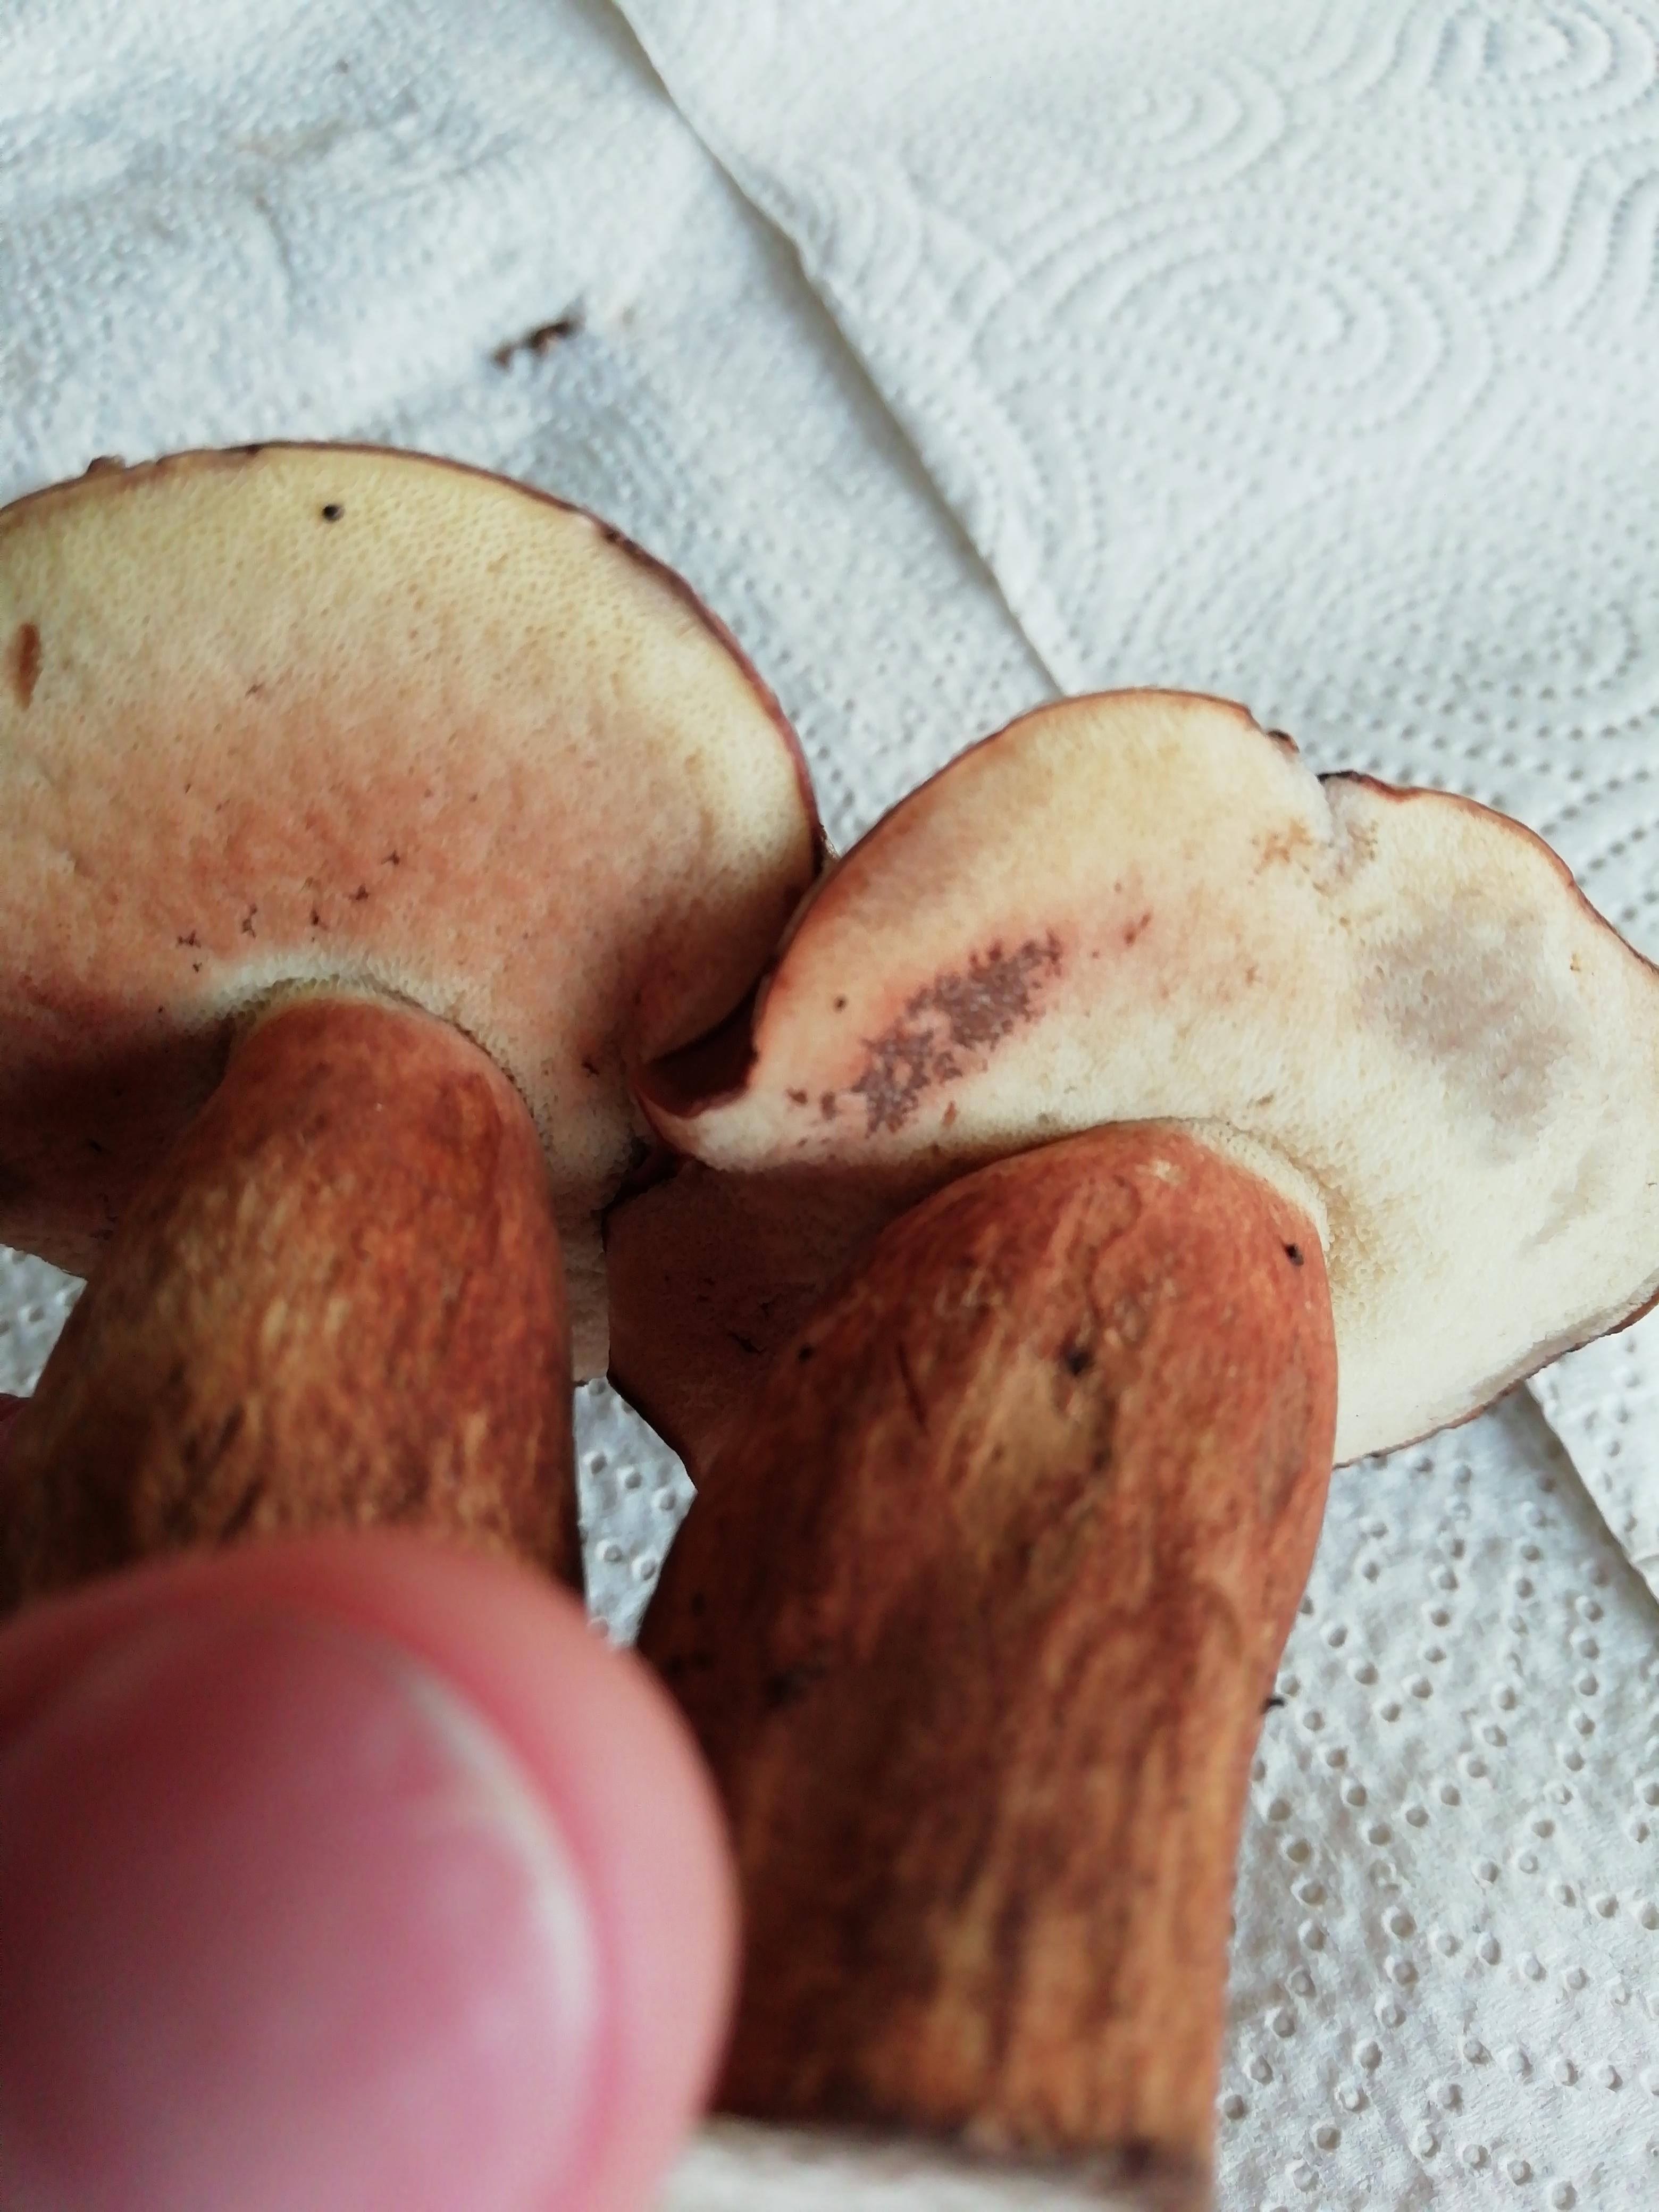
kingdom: Fungi
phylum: Basidiomycota
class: Agaricomycetes
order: Boletales
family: Boletaceae
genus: Imleria
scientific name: Imleria badia
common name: brunstokket rørhat
